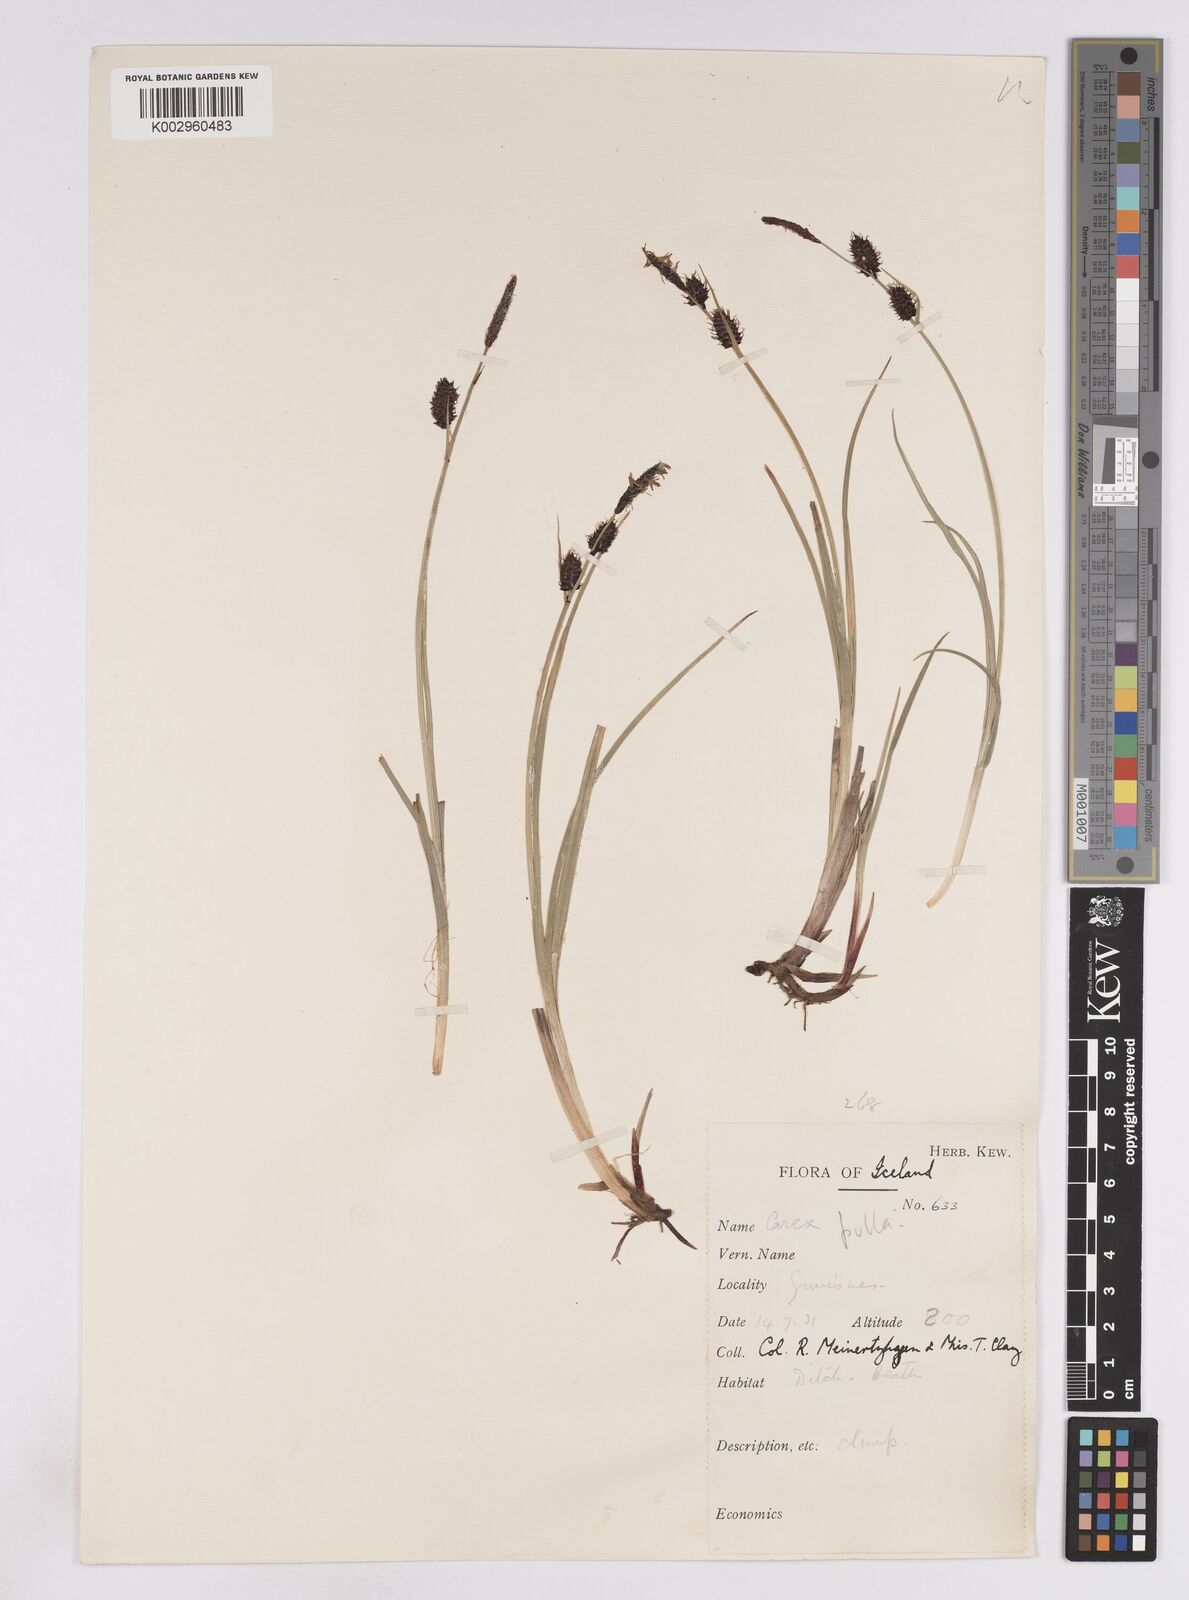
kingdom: Plantae
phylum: Tracheophyta
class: Liliopsida
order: Poales
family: Cyperaceae
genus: Carex
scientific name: Carex saxatilis
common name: Russet sedge
